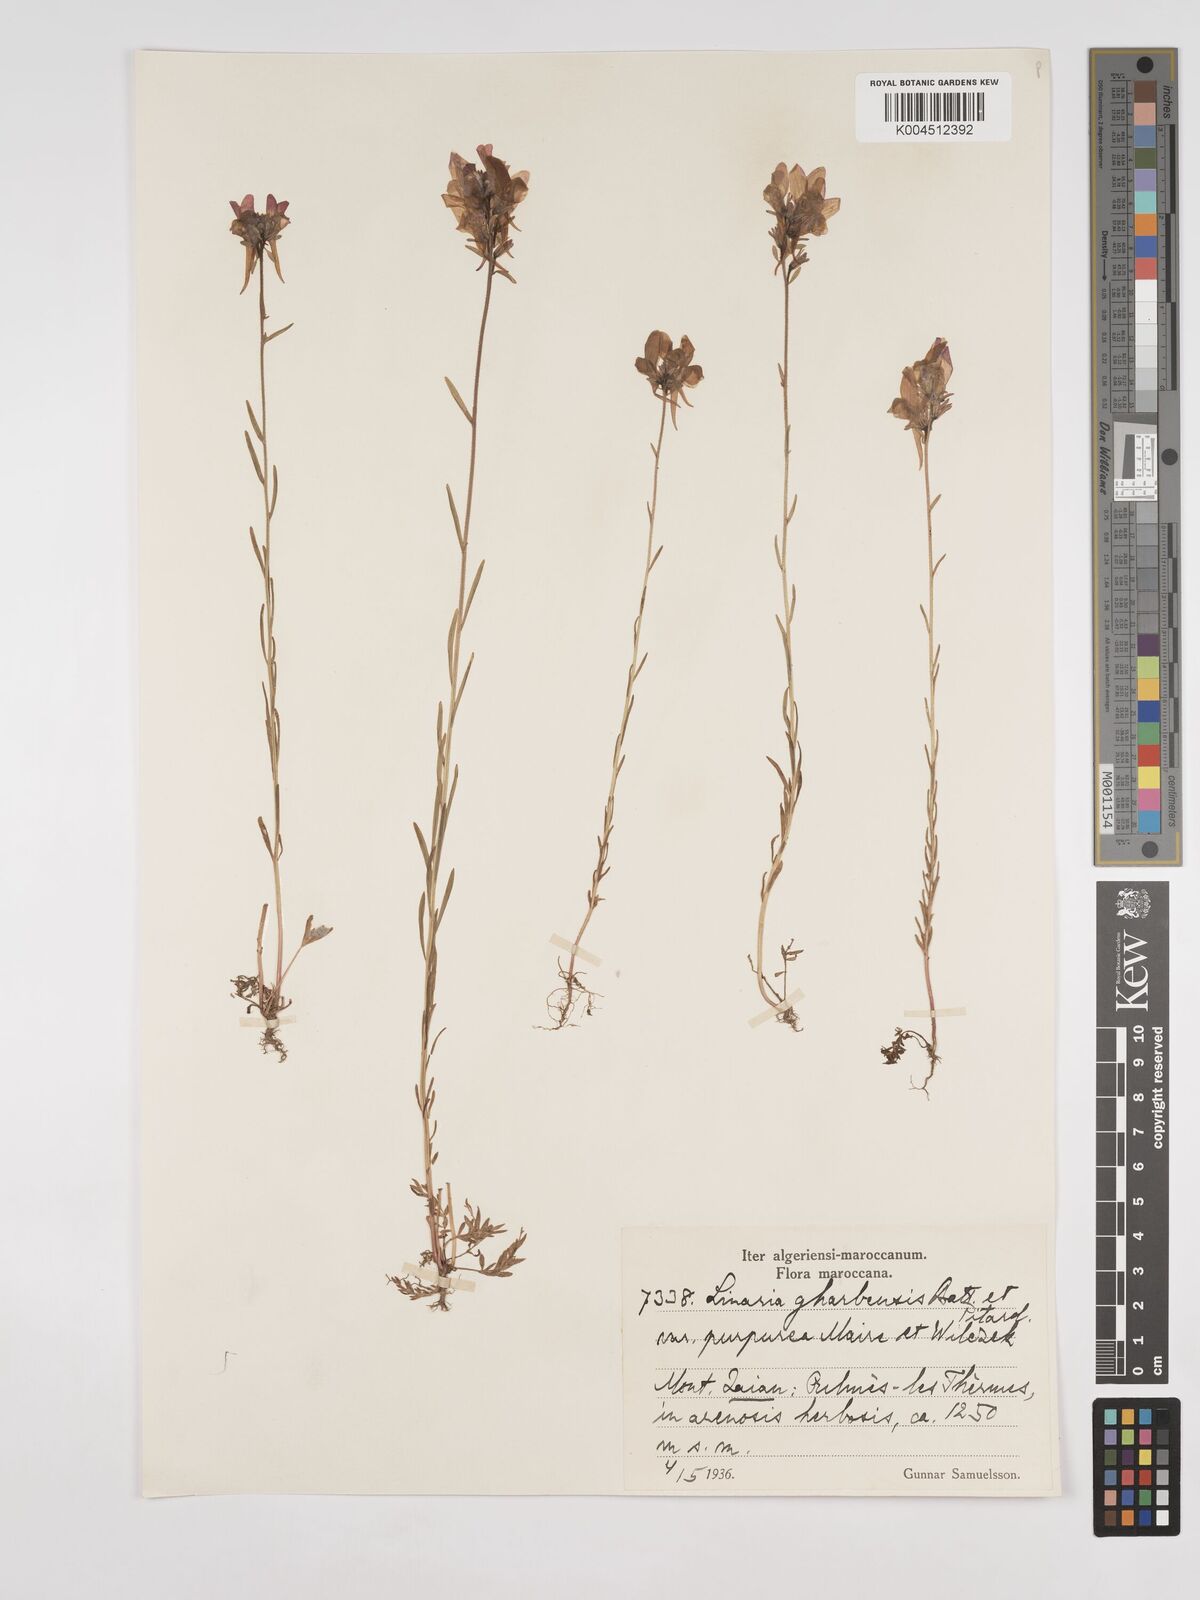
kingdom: Plantae
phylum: Tracheophyta
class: Magnoliopsida
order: Lamiales
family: Plantaginaceae
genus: Linaria
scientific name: Linaria gharbensis
